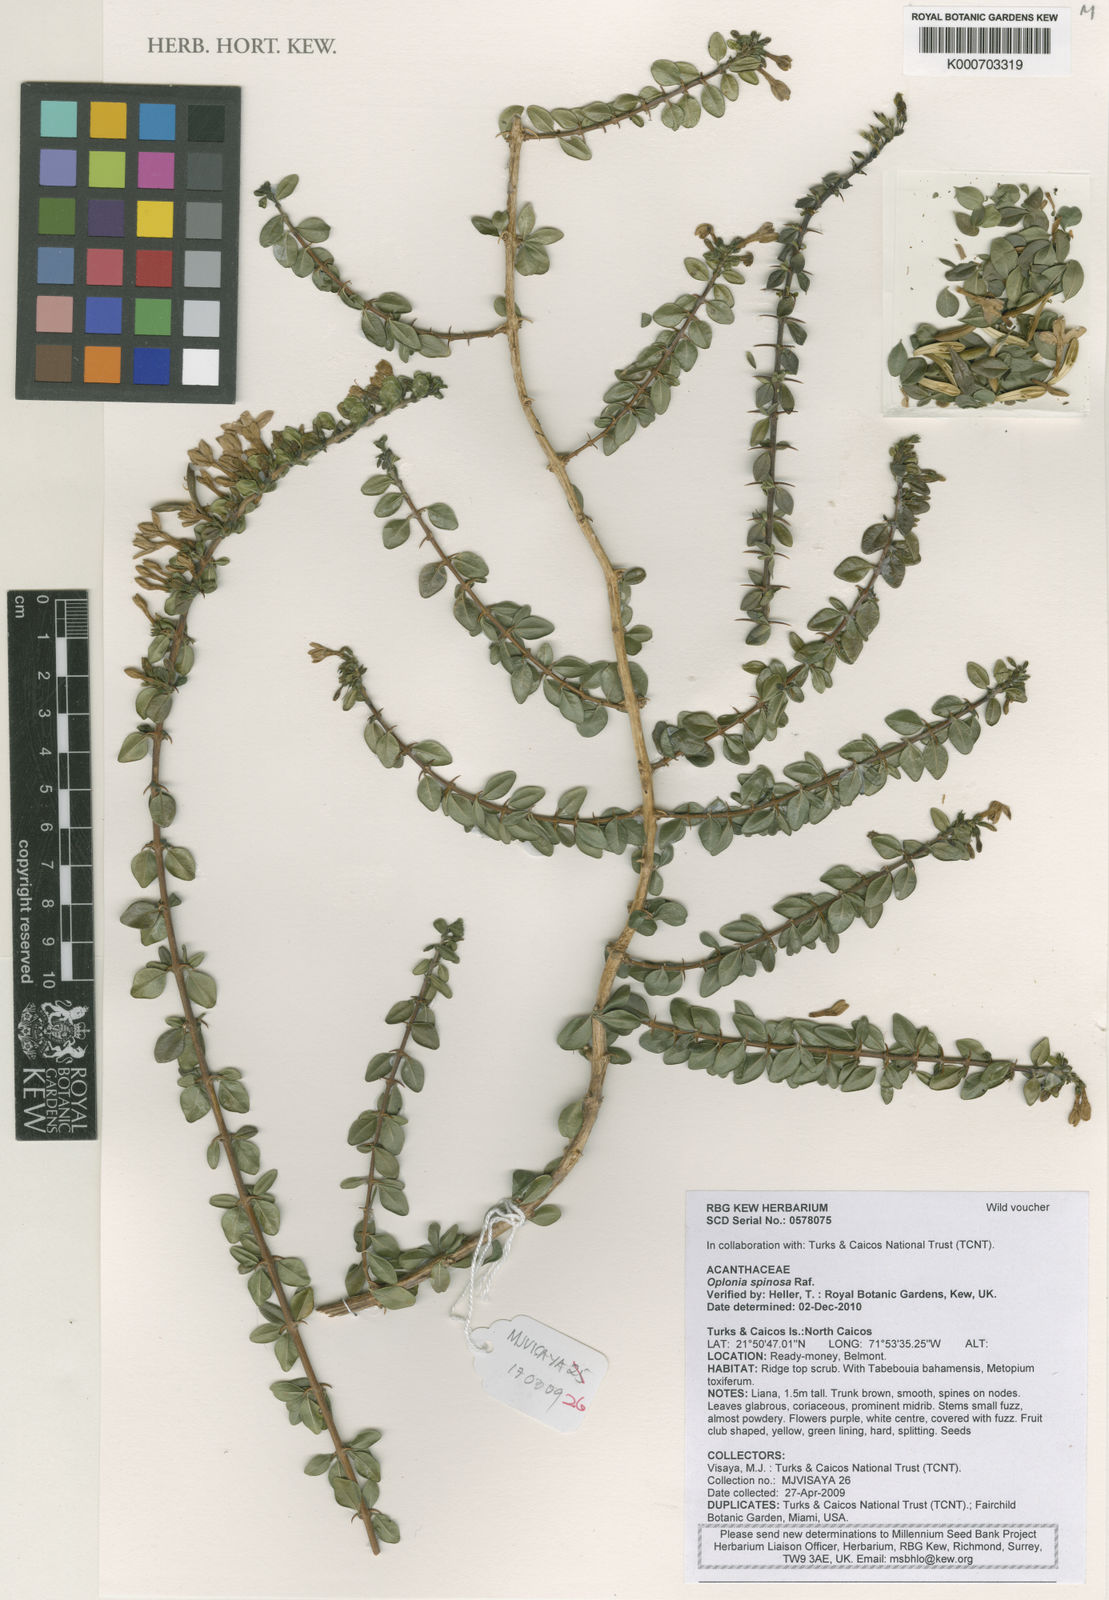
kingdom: Plantae
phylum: Tracheophyta
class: Magnoliopsida
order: Lamiales
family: Acanthaceae
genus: Oplonia
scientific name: Oplonia spinosa
